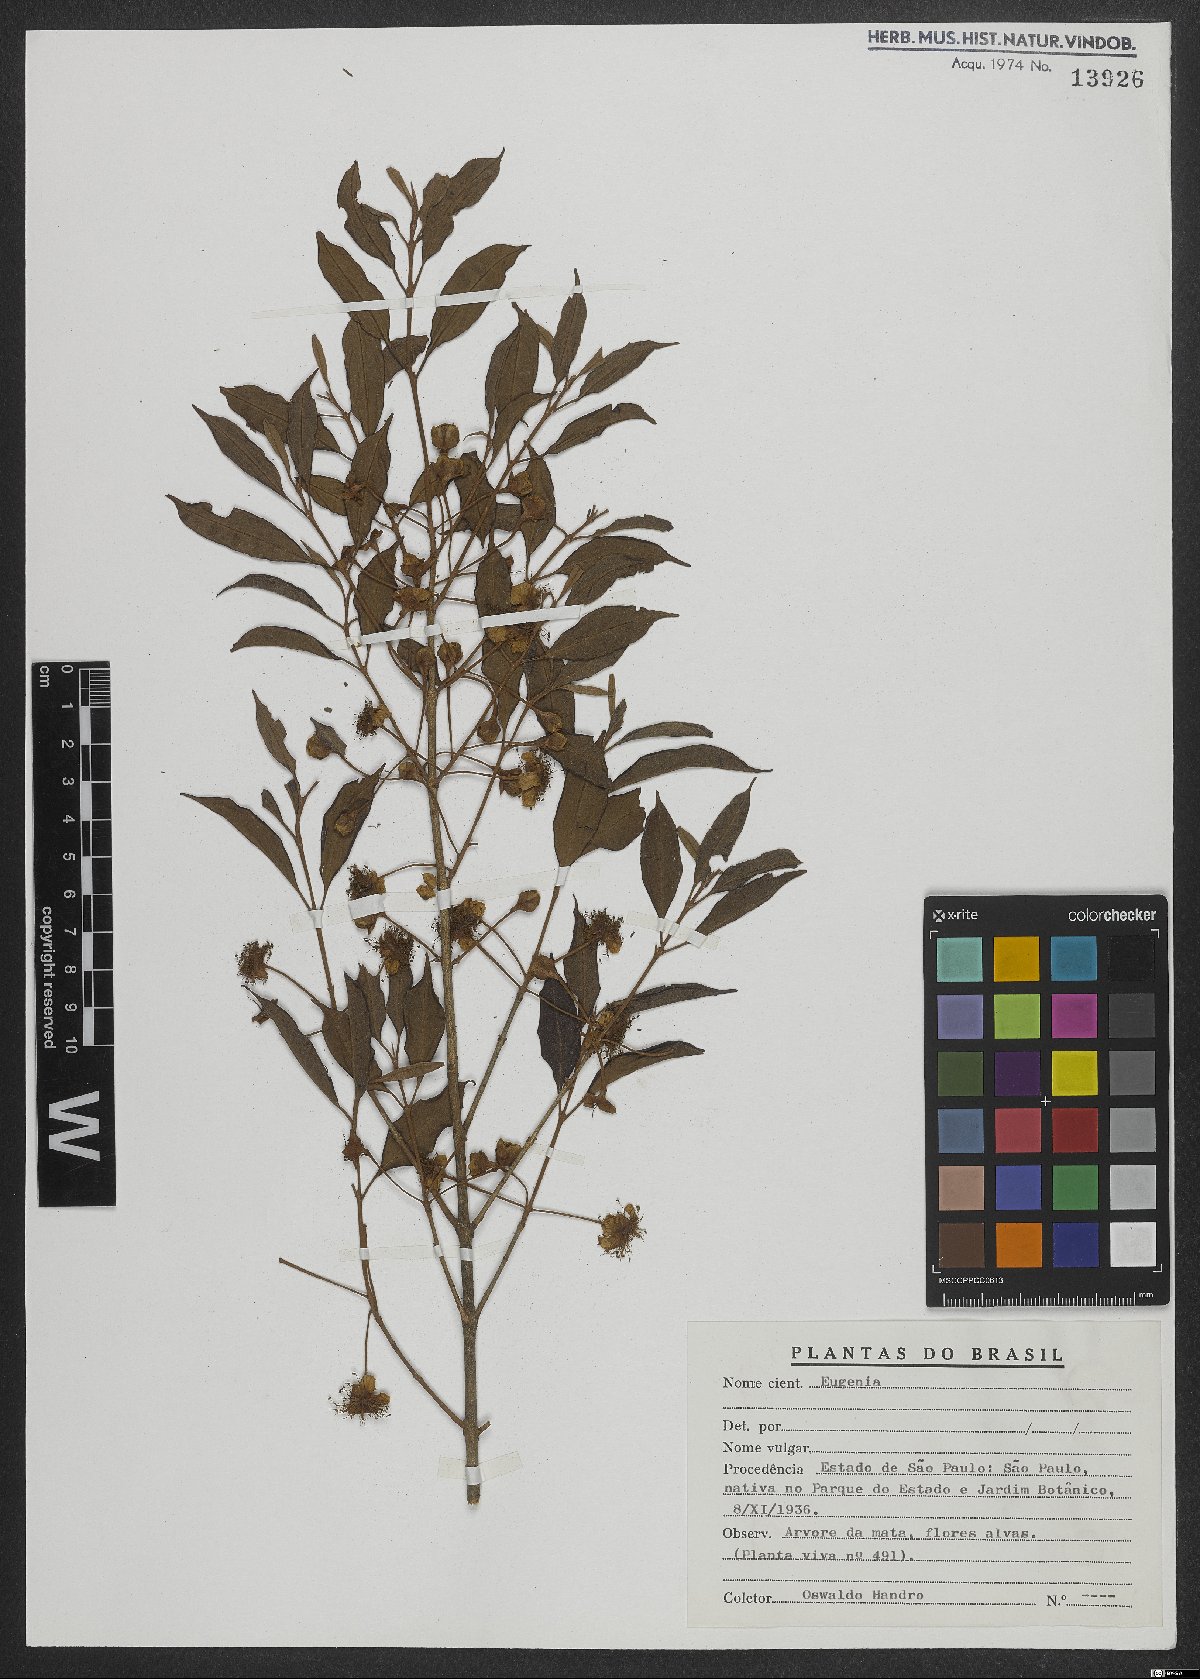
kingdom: Plantae
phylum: Tracheophyta
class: Magnoliopsida
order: Myrtales
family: Myrtaceae
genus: Eugenia
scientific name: Eugenia expansa
